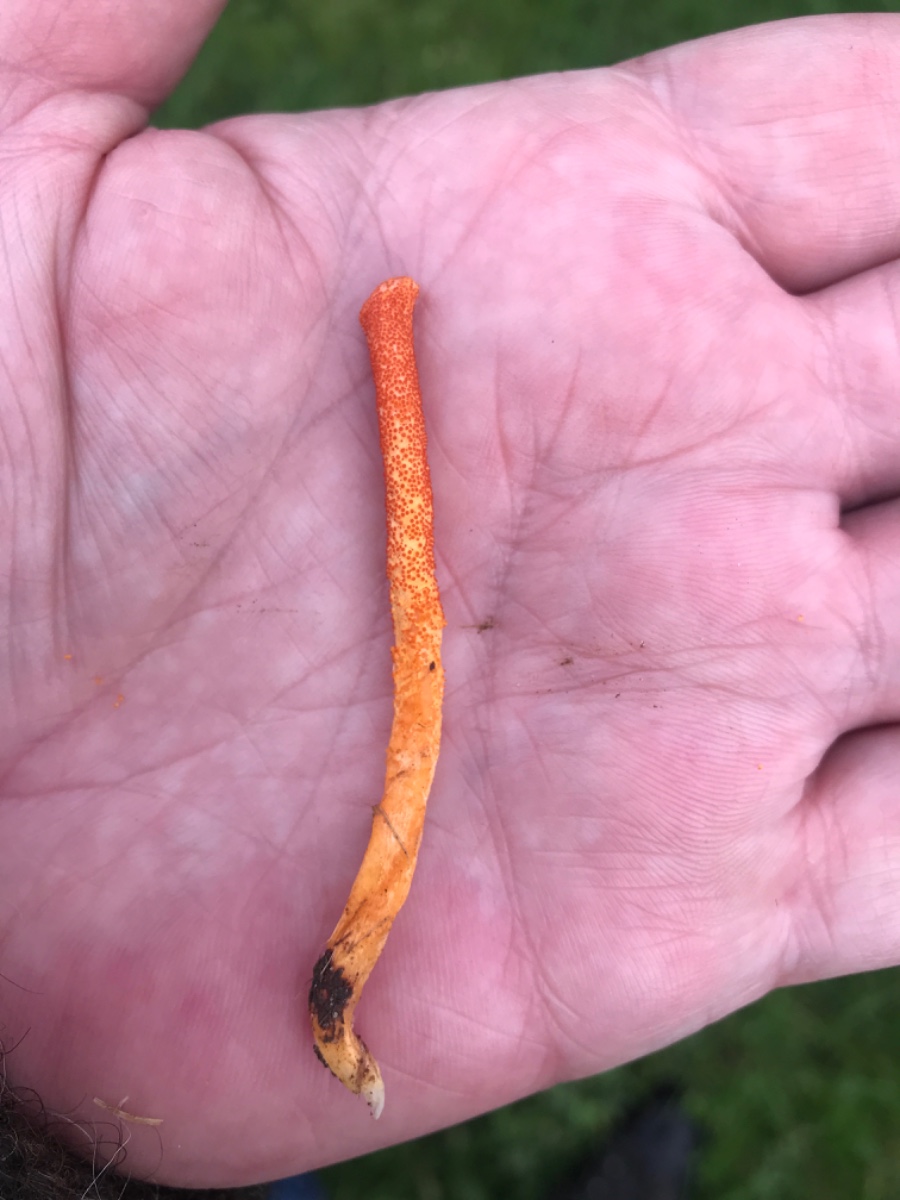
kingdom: Fungi
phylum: Ascomycota
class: Sordariomycetes
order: Hypocreales
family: Cordycipitaceae
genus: Cordyceps
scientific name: Cordyceps militaris
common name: puppe-snyltekølle
